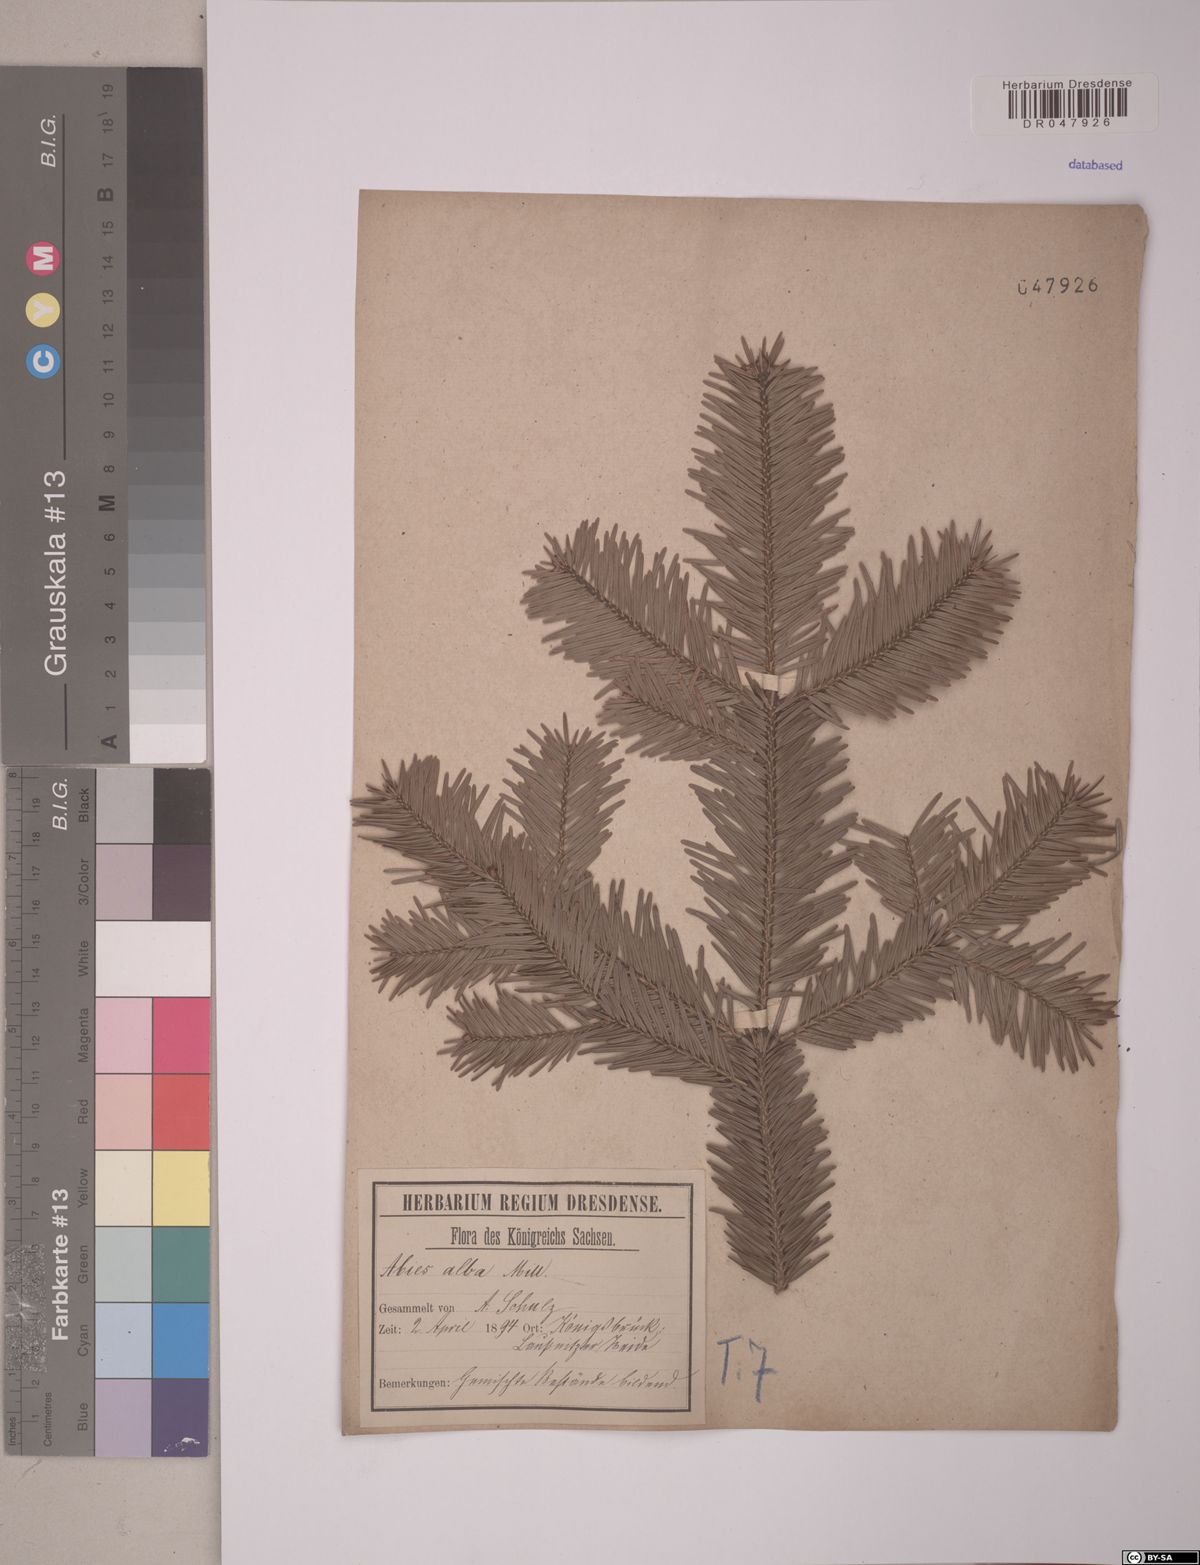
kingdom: Plantae
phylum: Tracheophyta
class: Pinopsida
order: Pinales
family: Pinaceae
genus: Abies
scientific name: Abies alba
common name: Silver fir
